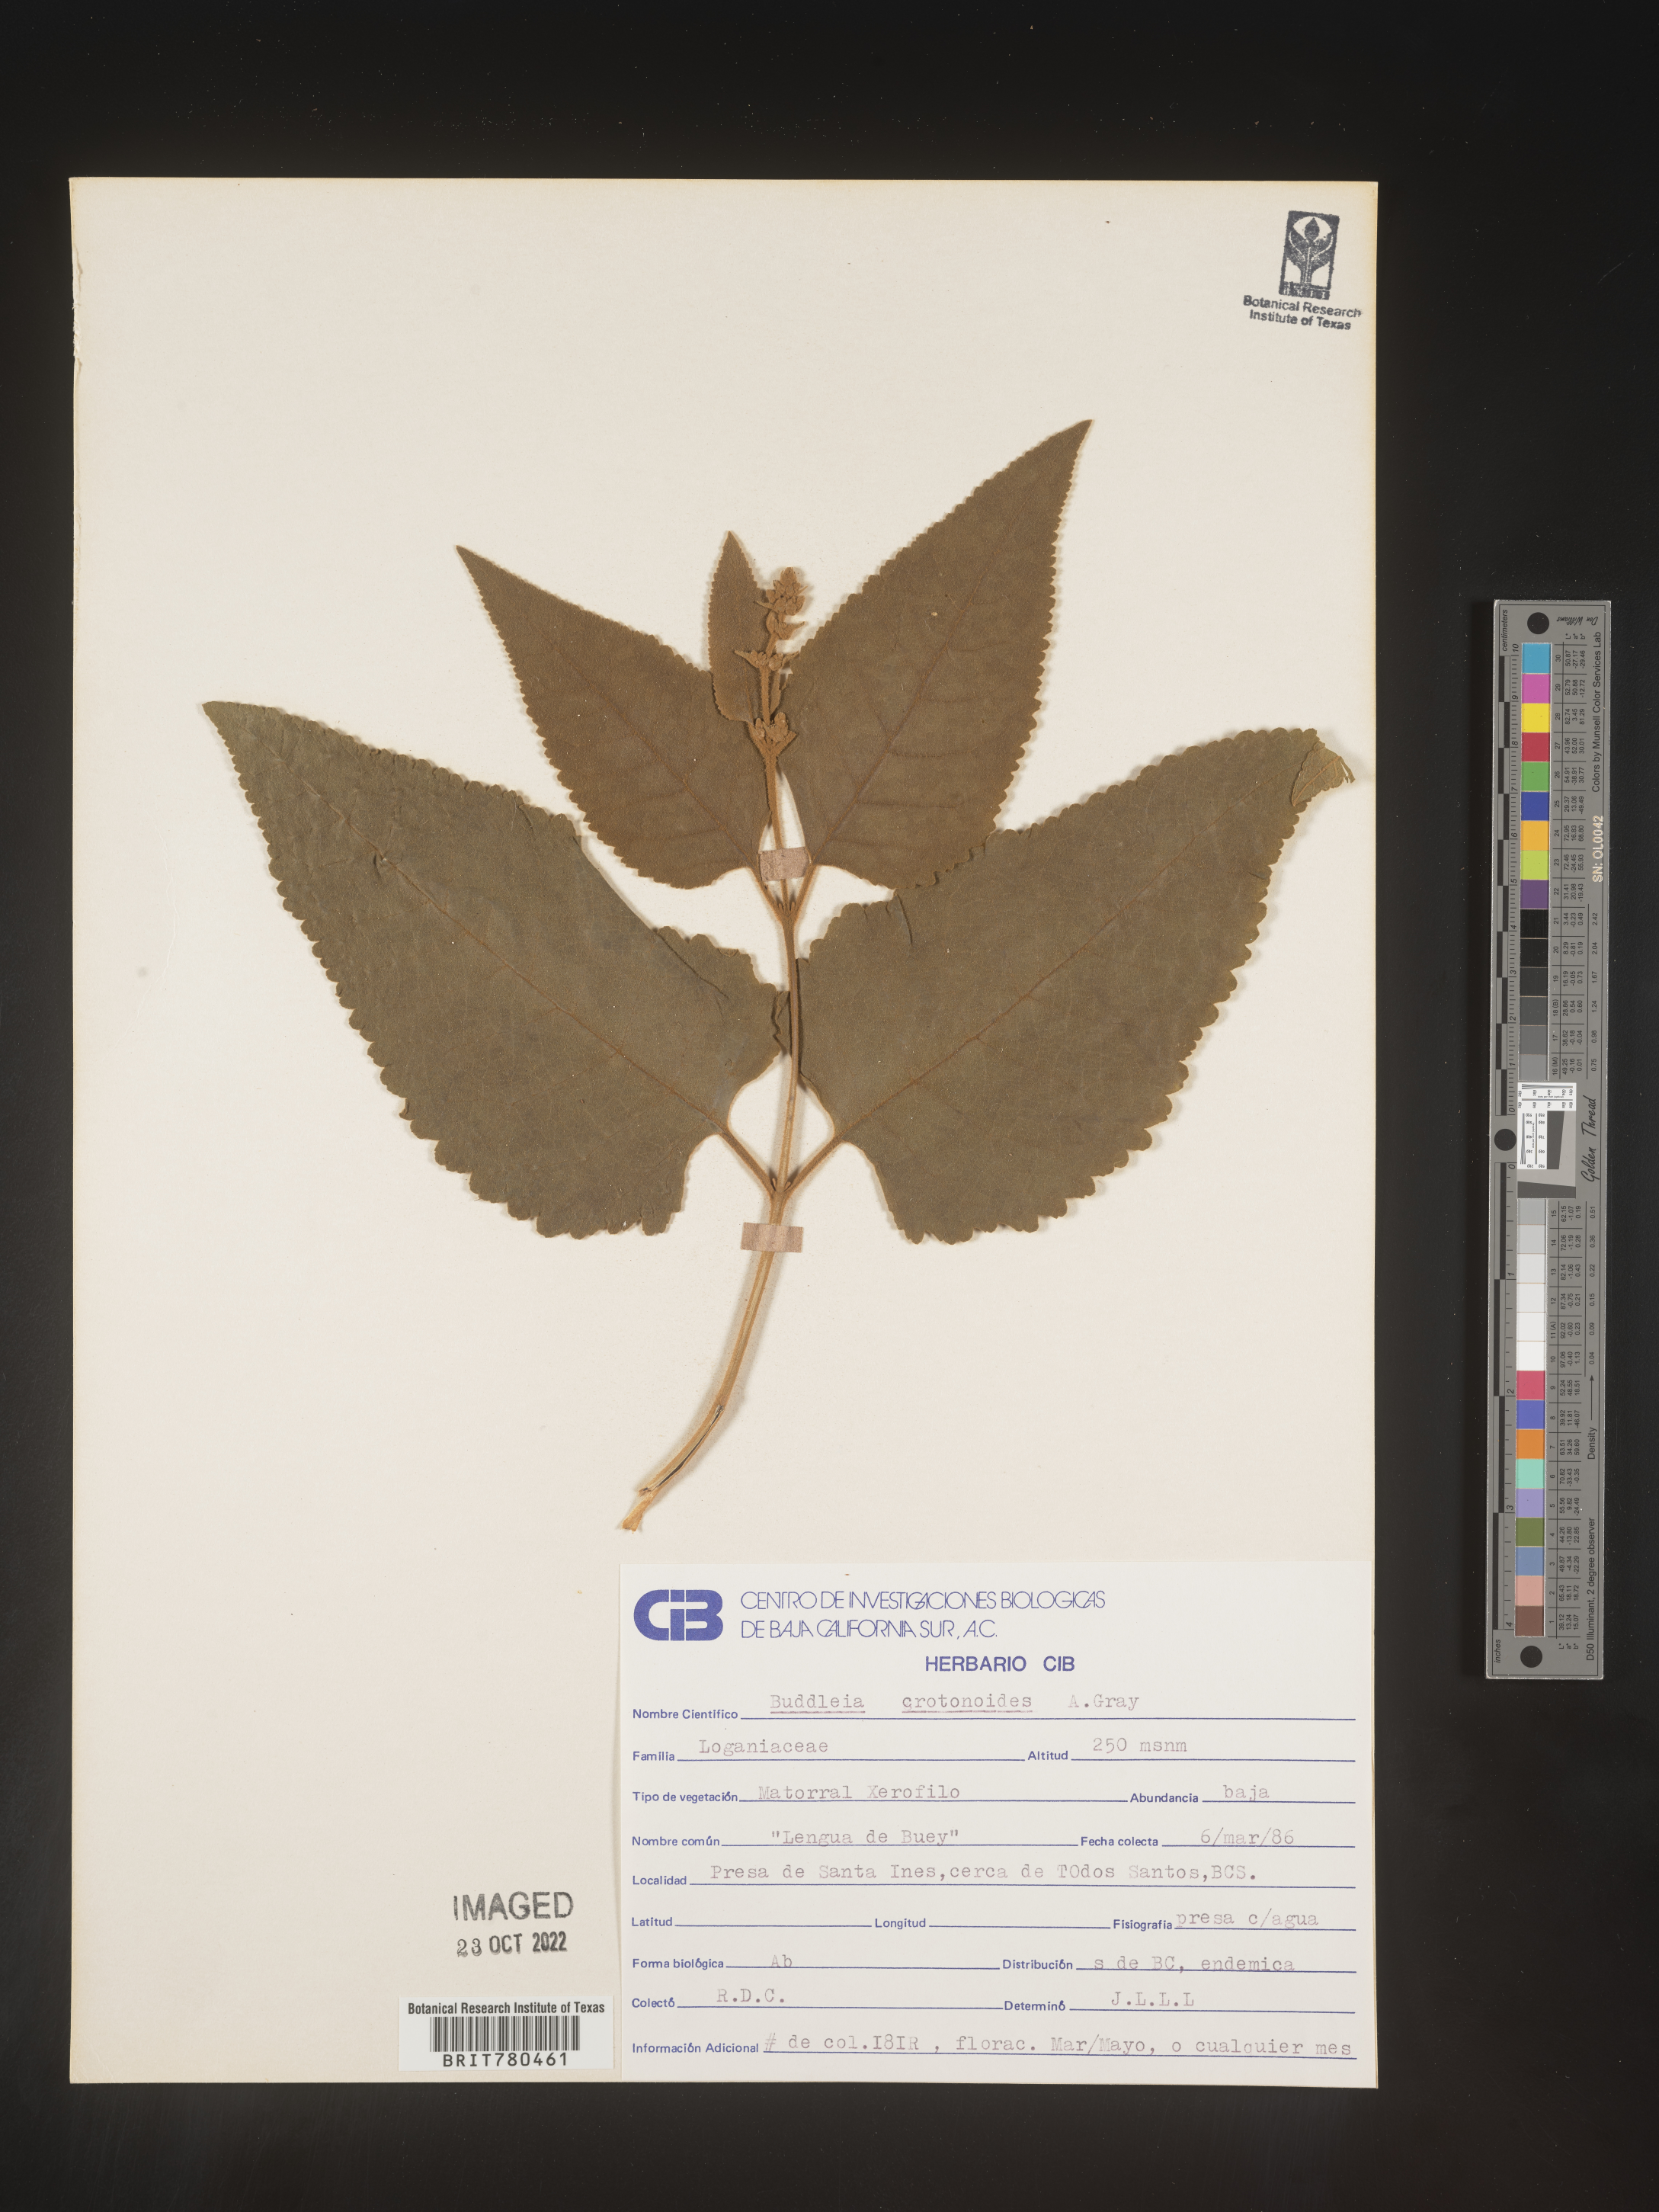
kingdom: Plantae
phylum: Tracheophyta
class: Magnoliopsida
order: Lamiales
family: Scrophulariaceae
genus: Buddleja
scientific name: Buddleja
